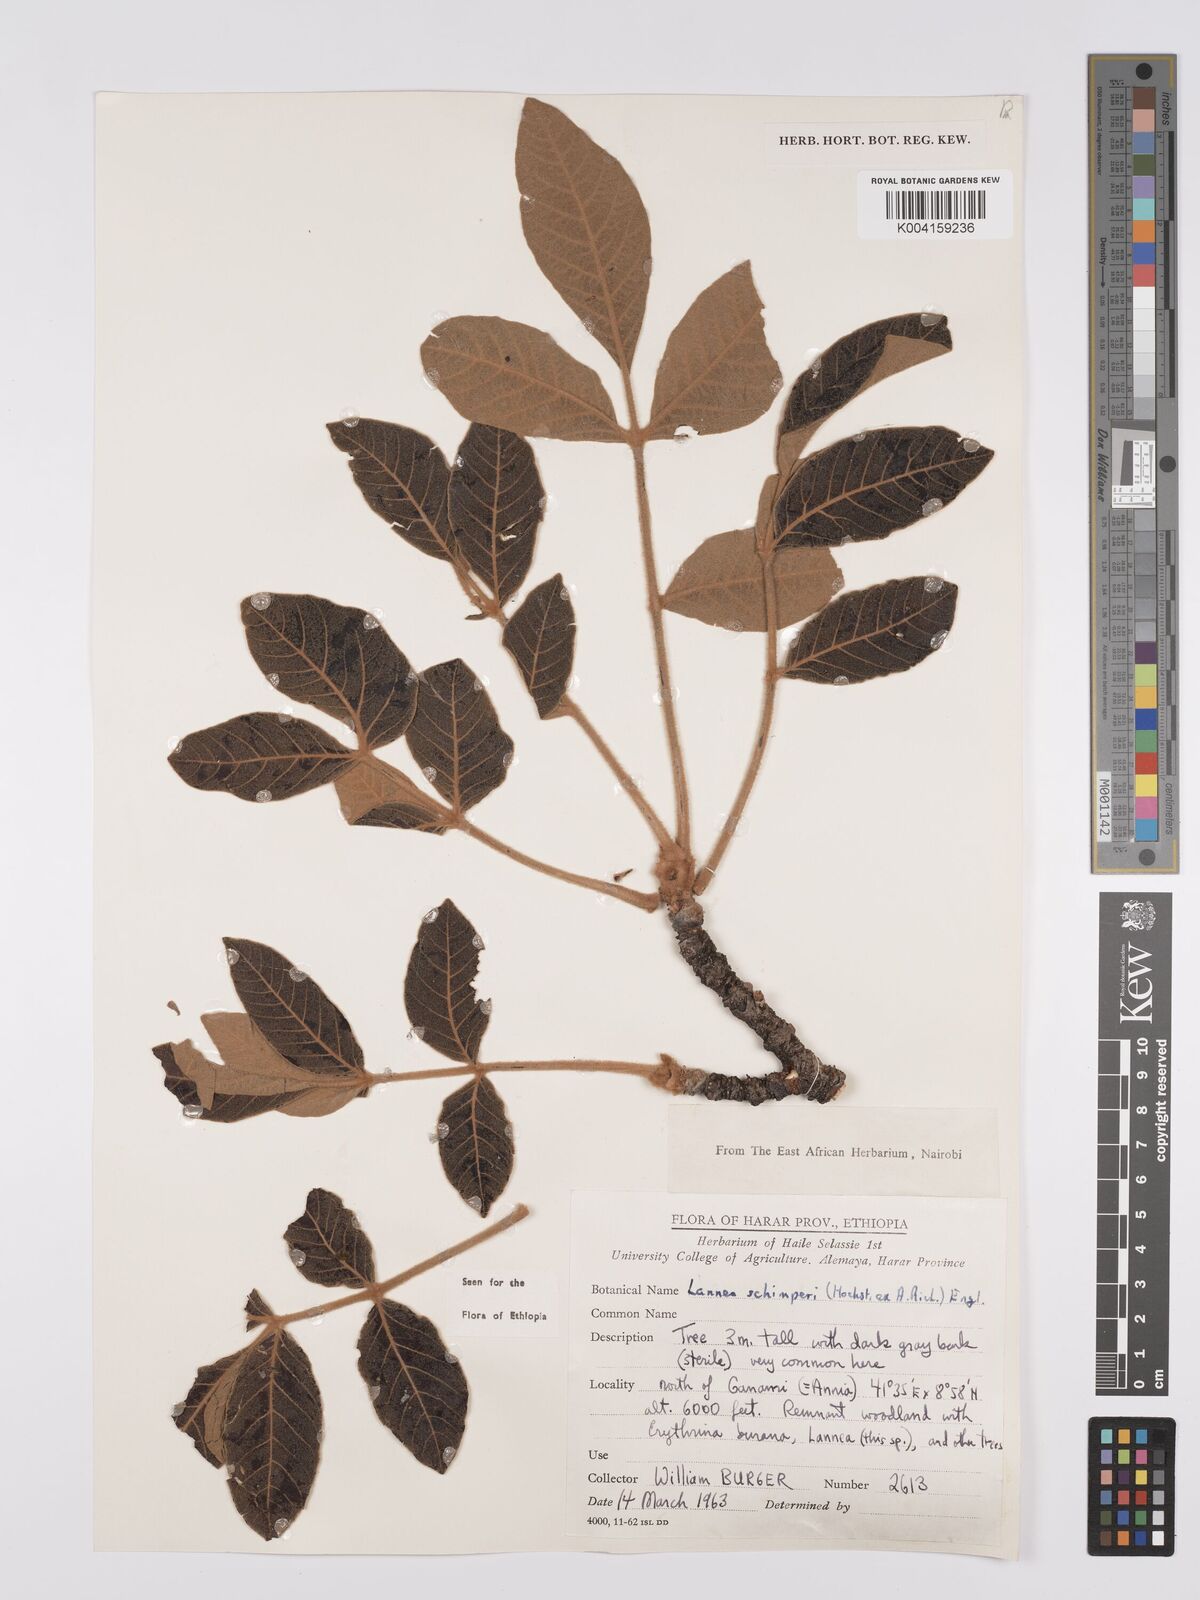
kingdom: Plantae
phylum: Tracheophyta
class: Magnoliopsida
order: Sapindales
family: Anacardiaceae
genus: Lannea
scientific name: Lannea schimperi
